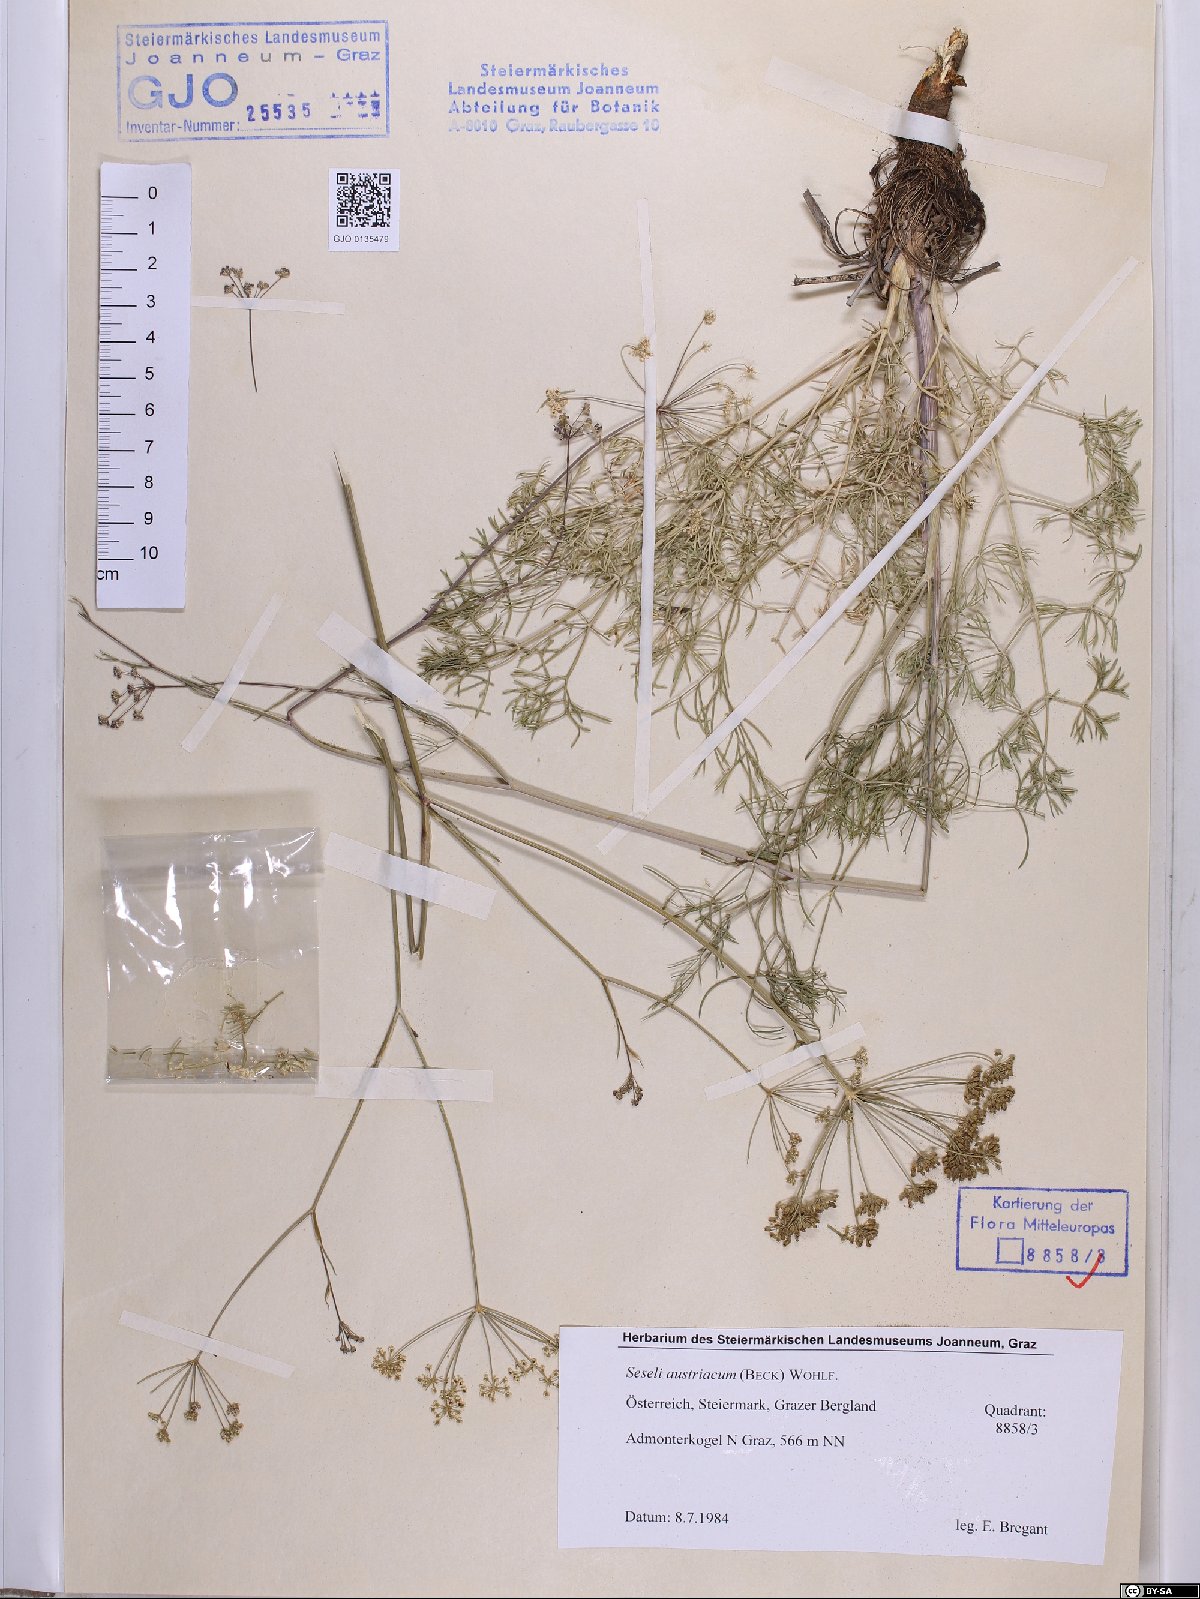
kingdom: Plantae
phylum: Tracheophyta
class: Magnoliopsida
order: Apiales
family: Apiaceae
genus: Seseli
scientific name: Seseli austriacum
